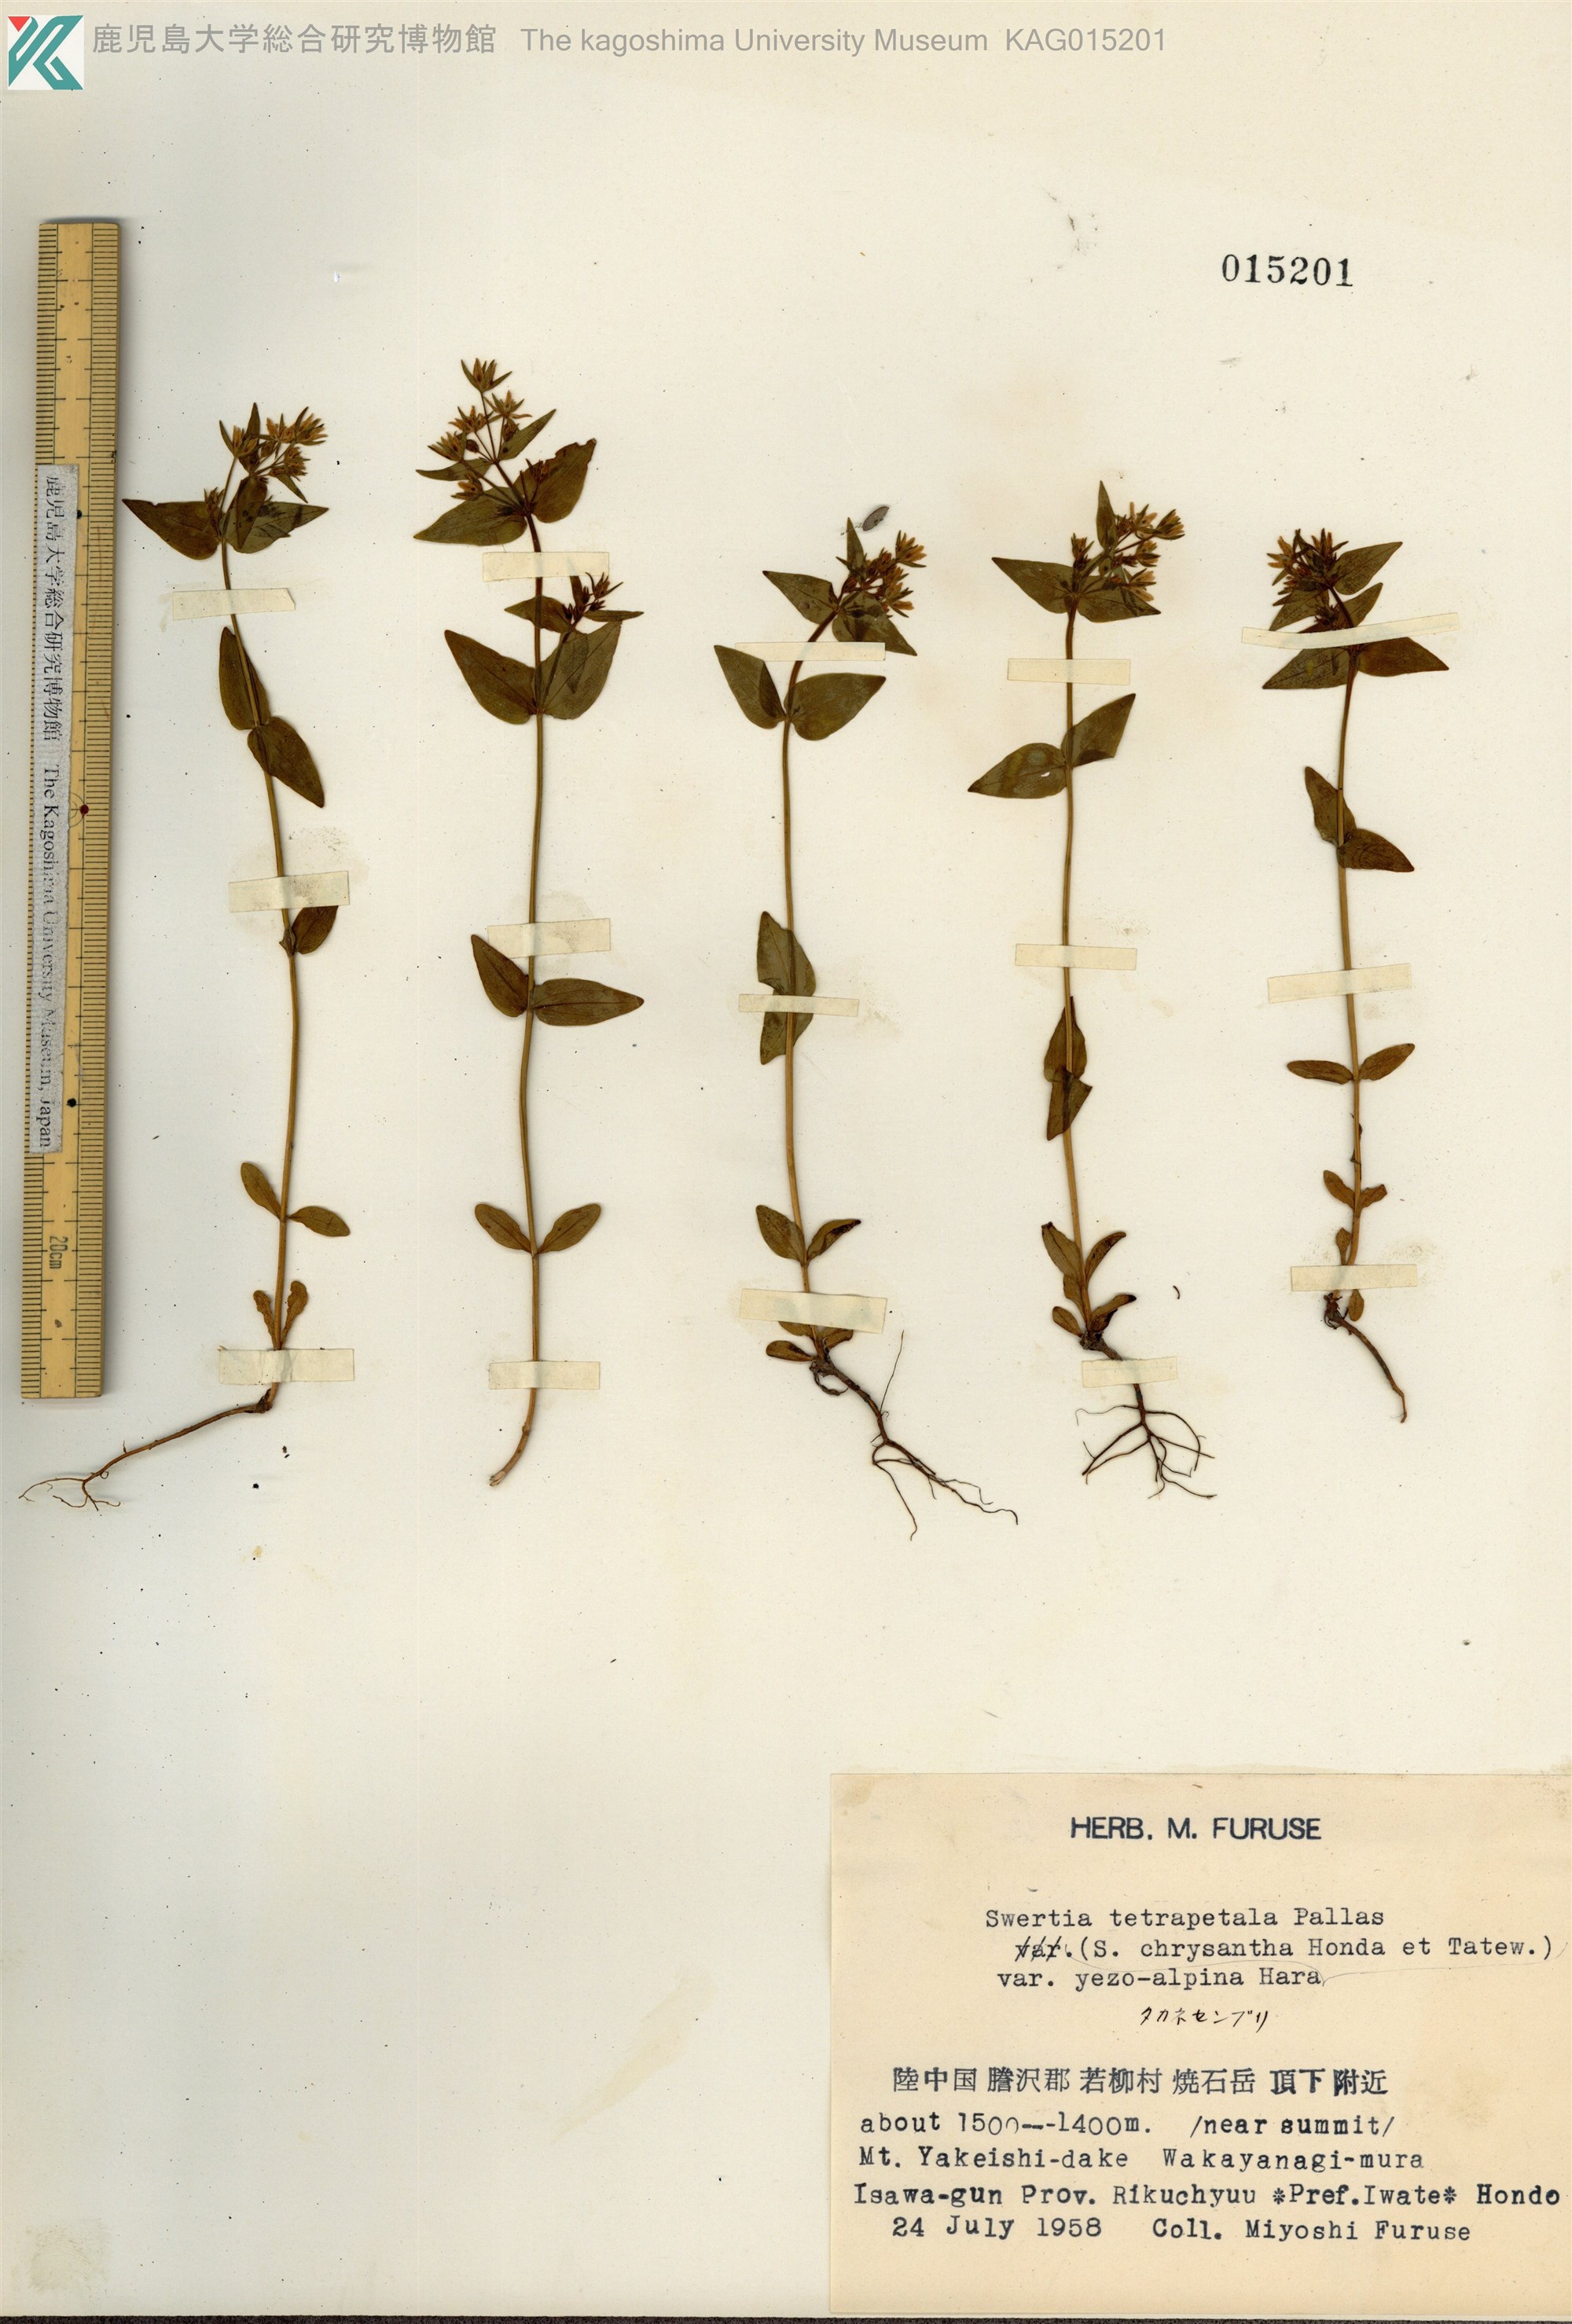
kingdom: Plantae
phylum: Tracheophyta
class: Magnoliopsida
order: Gentianales
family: Gentianaceae
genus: Swertia
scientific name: Swertia tetrapetala
